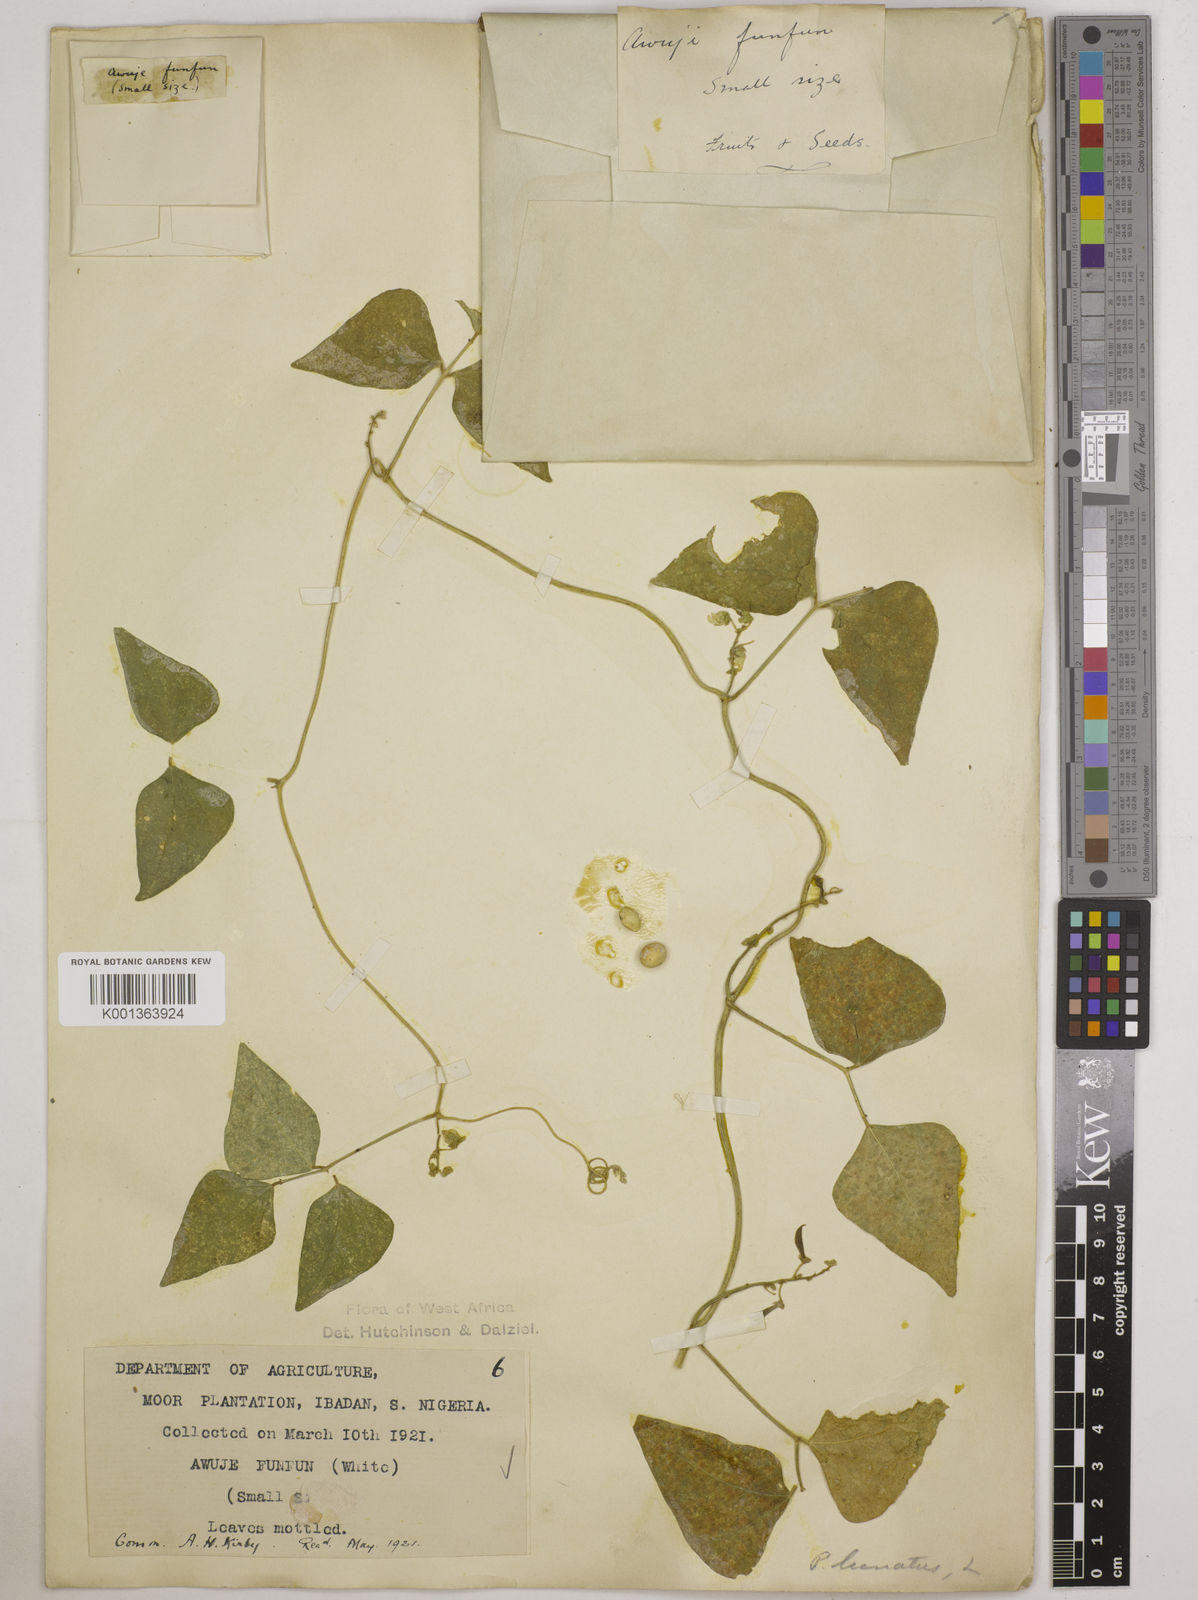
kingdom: Plantae
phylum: Tracheophyta
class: Magnoliopsida
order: Fabales
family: Fabaceae
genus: Phaseolus
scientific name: Phaseolus lunatus
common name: Sieva bean
